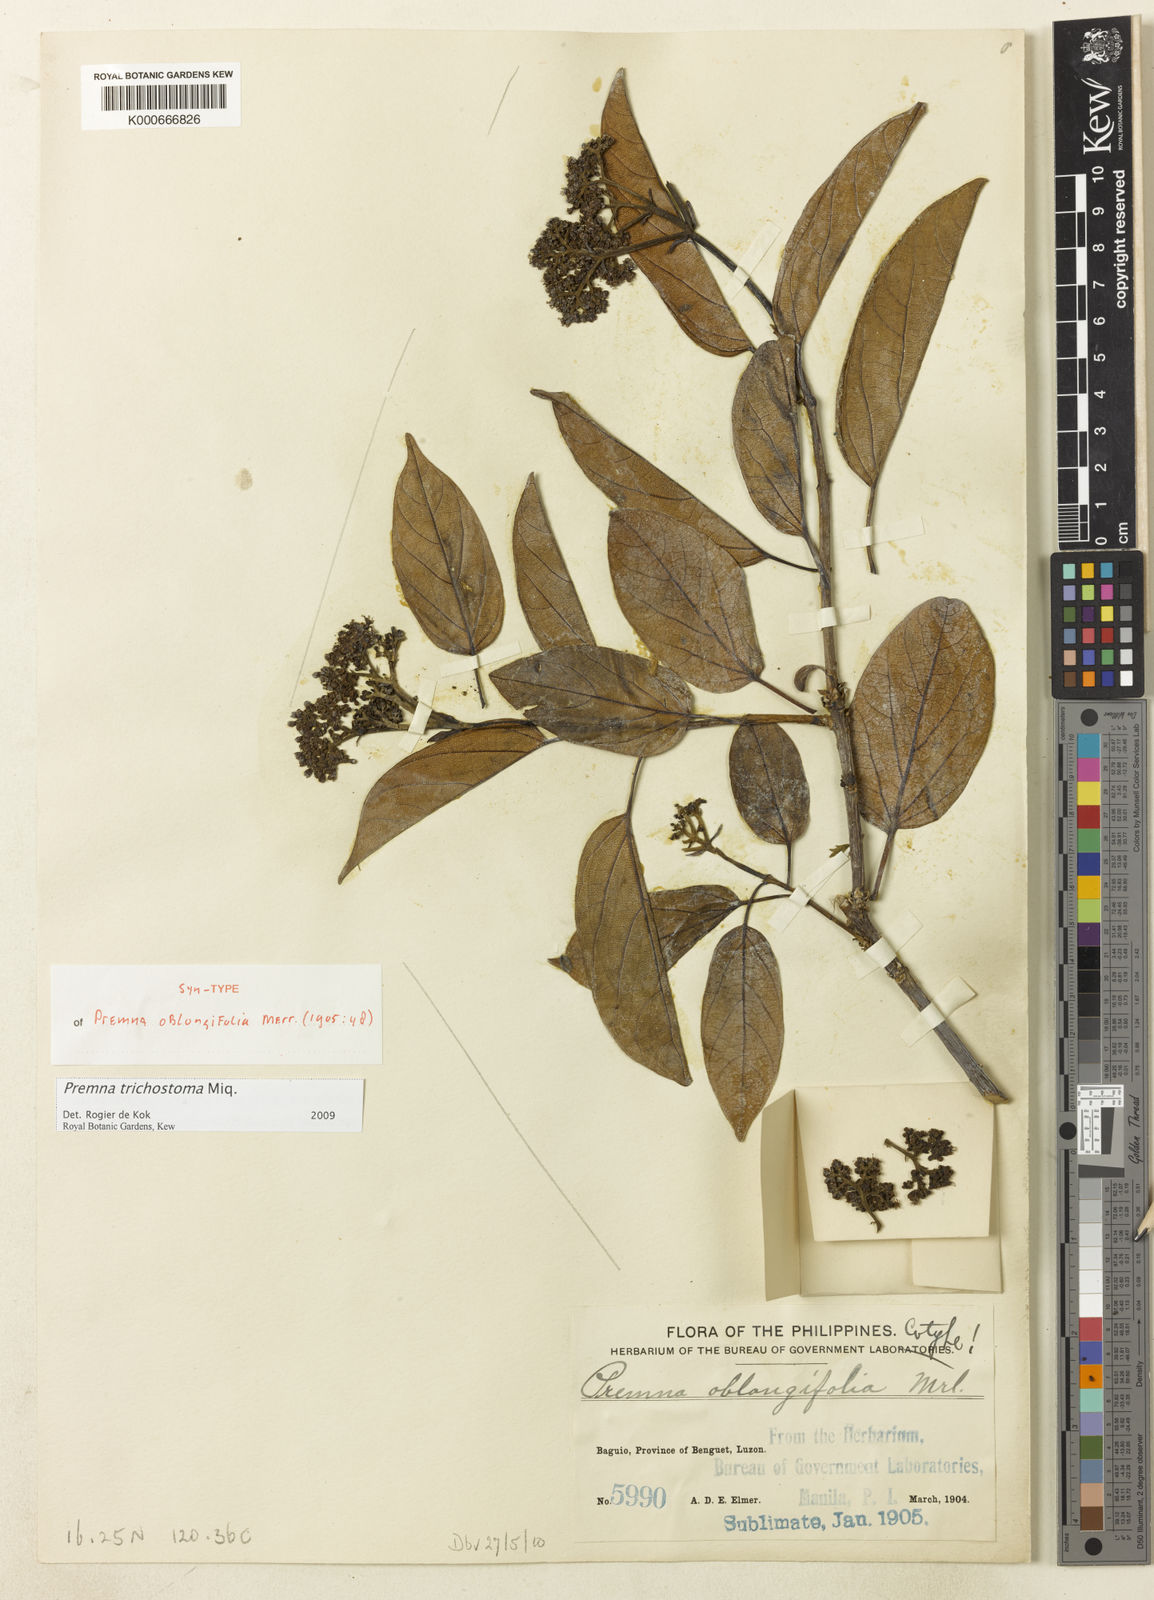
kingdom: Plantae
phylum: Tracheophyta
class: Magnoliopsida
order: Lamiales
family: Lamiaceae
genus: Premna
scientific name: Premna trichostoma
